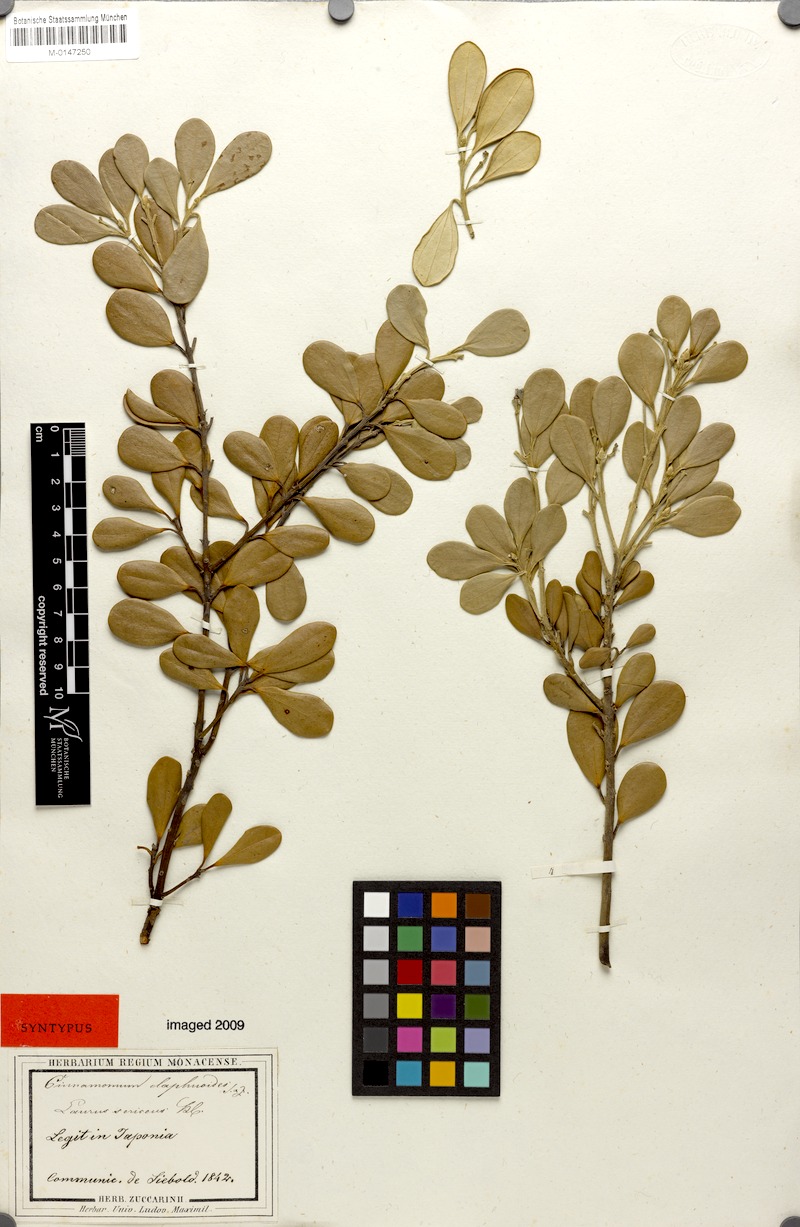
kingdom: Plantae
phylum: Tracheophyta
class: Magnoliopsida
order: Laurales
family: Lauraceae
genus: Cinnamomum
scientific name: Cinnamomum daphnoides
